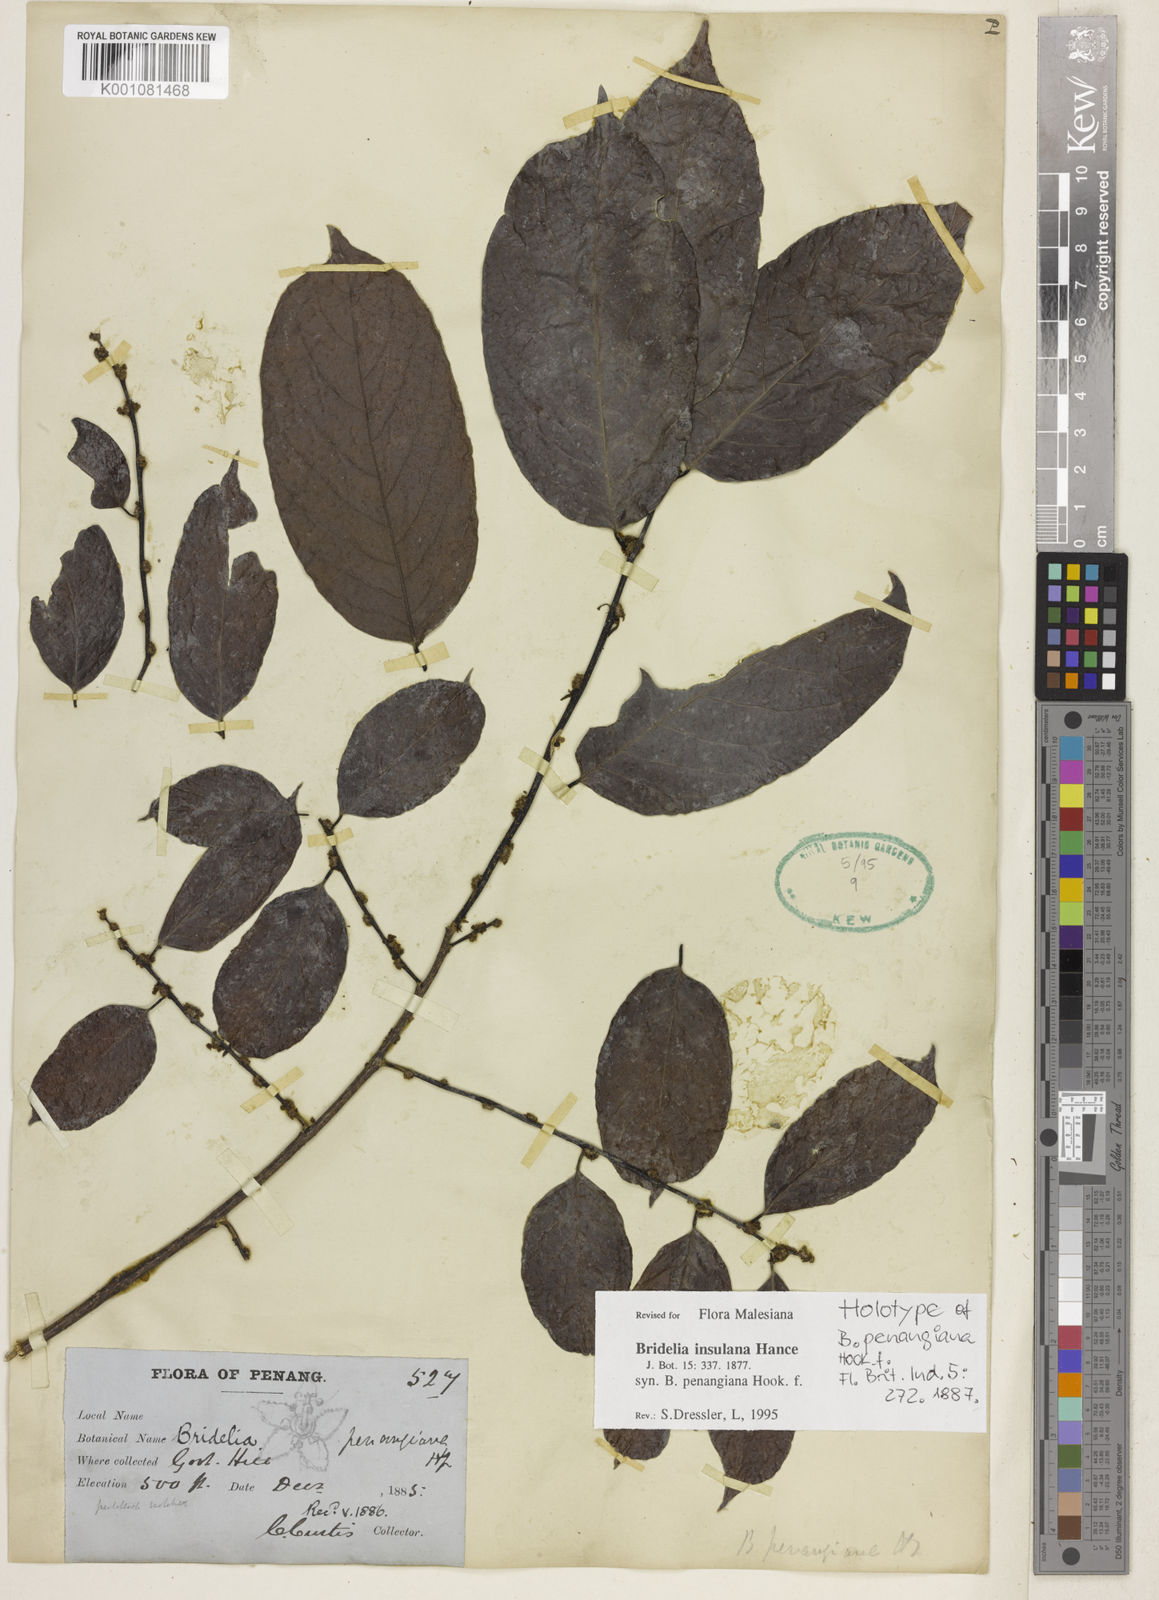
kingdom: Plantae
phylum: Tracheophyta
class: Magnoliopsida
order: Malpighiales
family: Phyllanthaceae
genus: Bridelia
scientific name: Bridelia insulana
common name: Grey-birch
